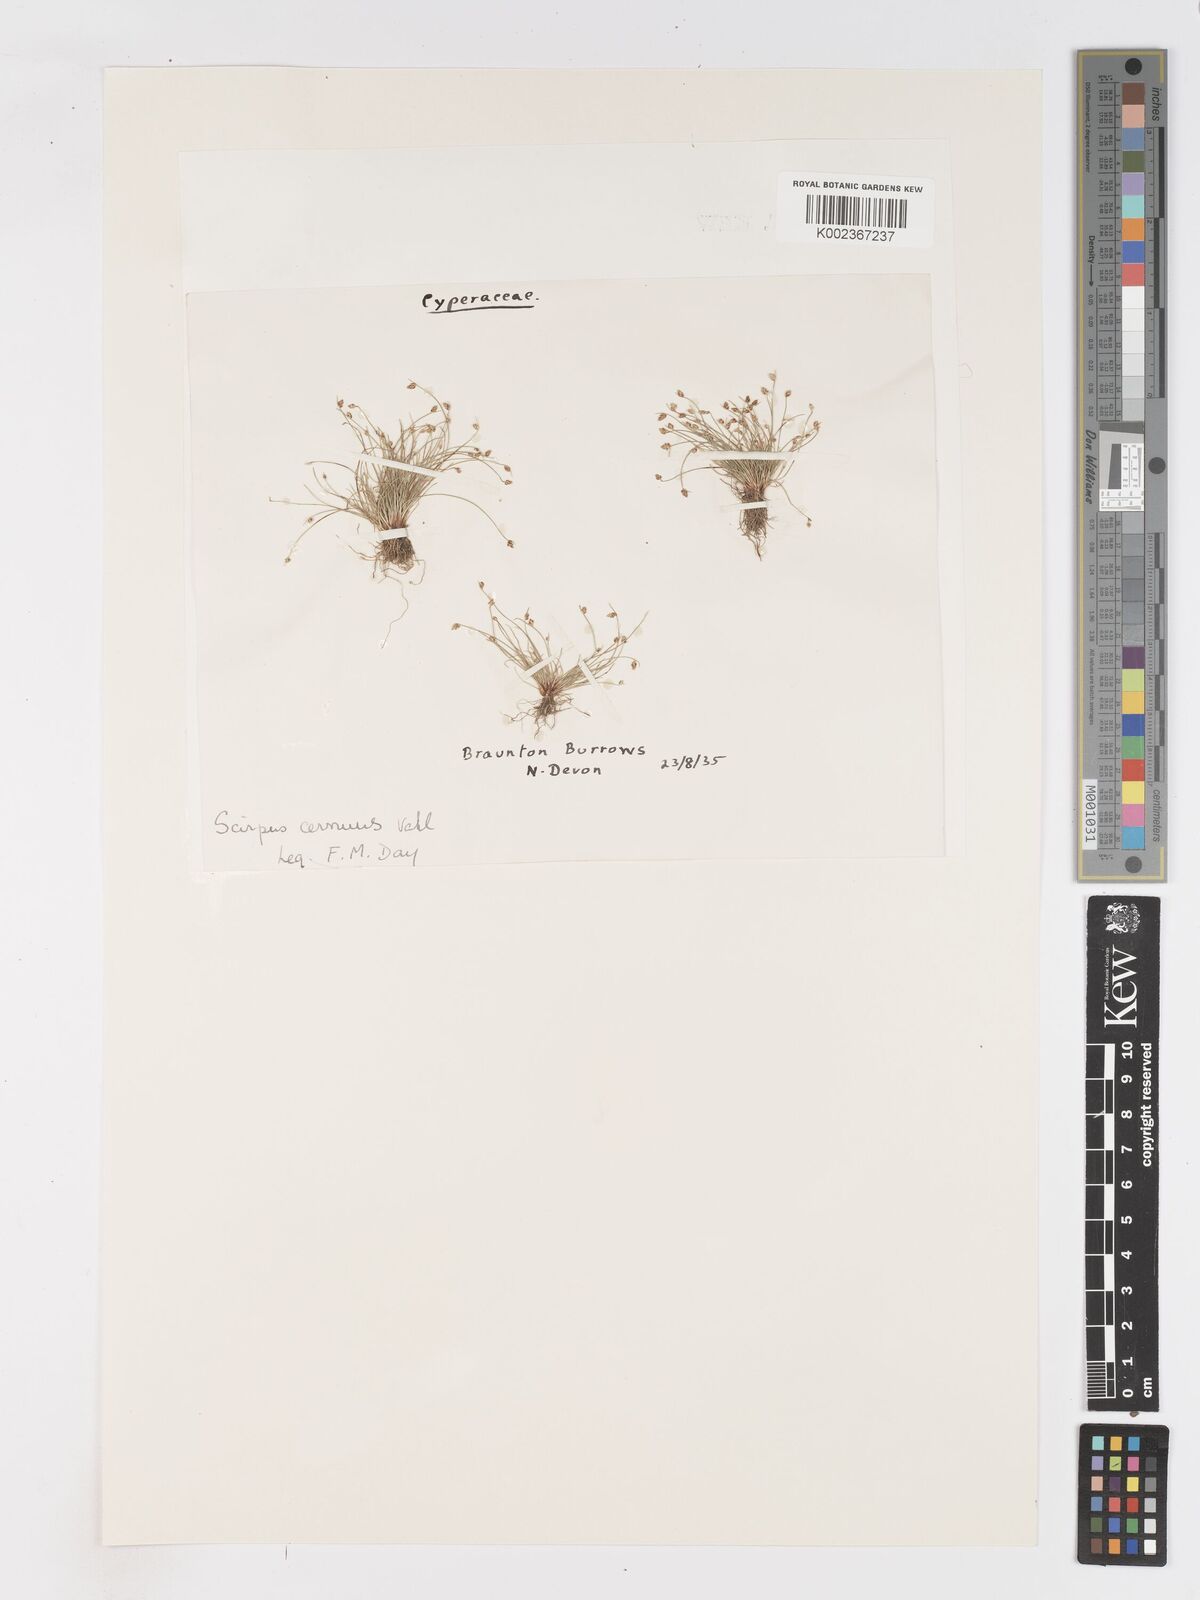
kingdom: Plantae
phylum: Tracheophyta
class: Liliopsida
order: Poales
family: Cyperaceae
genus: Isolepis
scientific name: Isolepis cernua
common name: Slender club-rush
